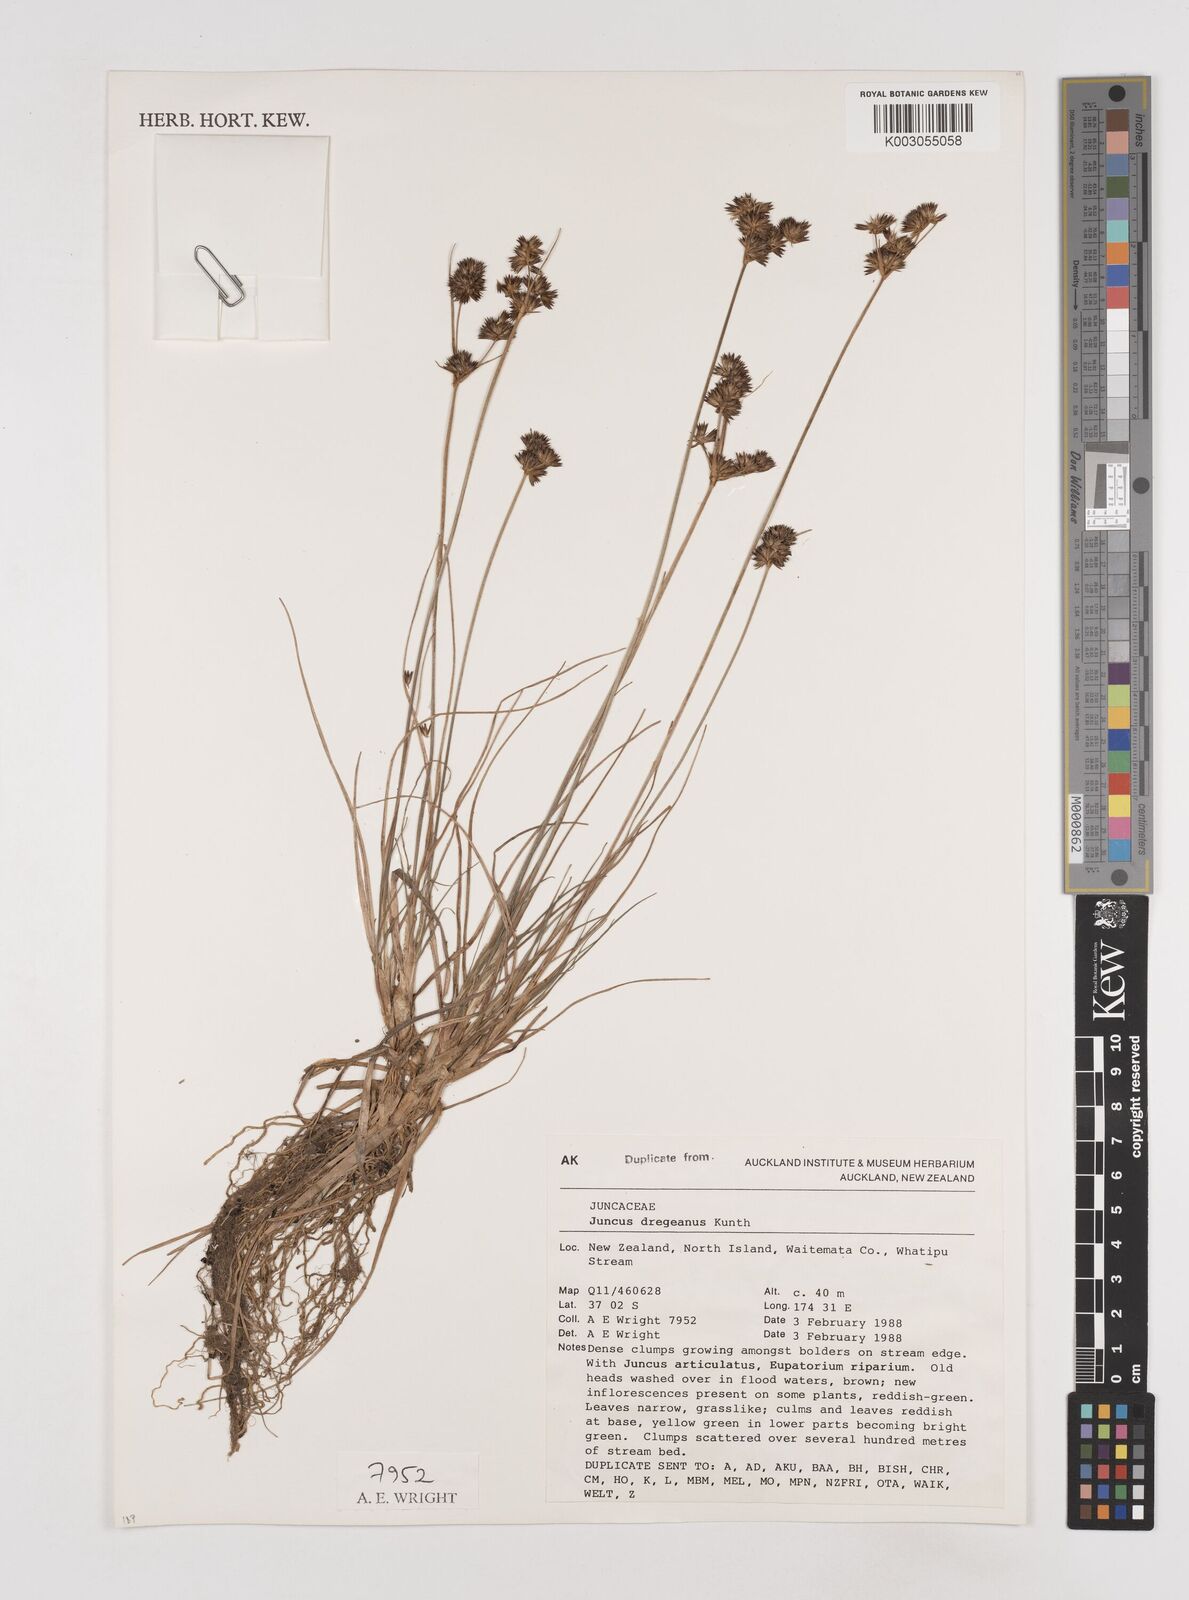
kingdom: Plantae
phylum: Tracheophyta
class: Liliopsida
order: Poales
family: Juncaceae
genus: Juncus
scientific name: Juncus dregeanus
